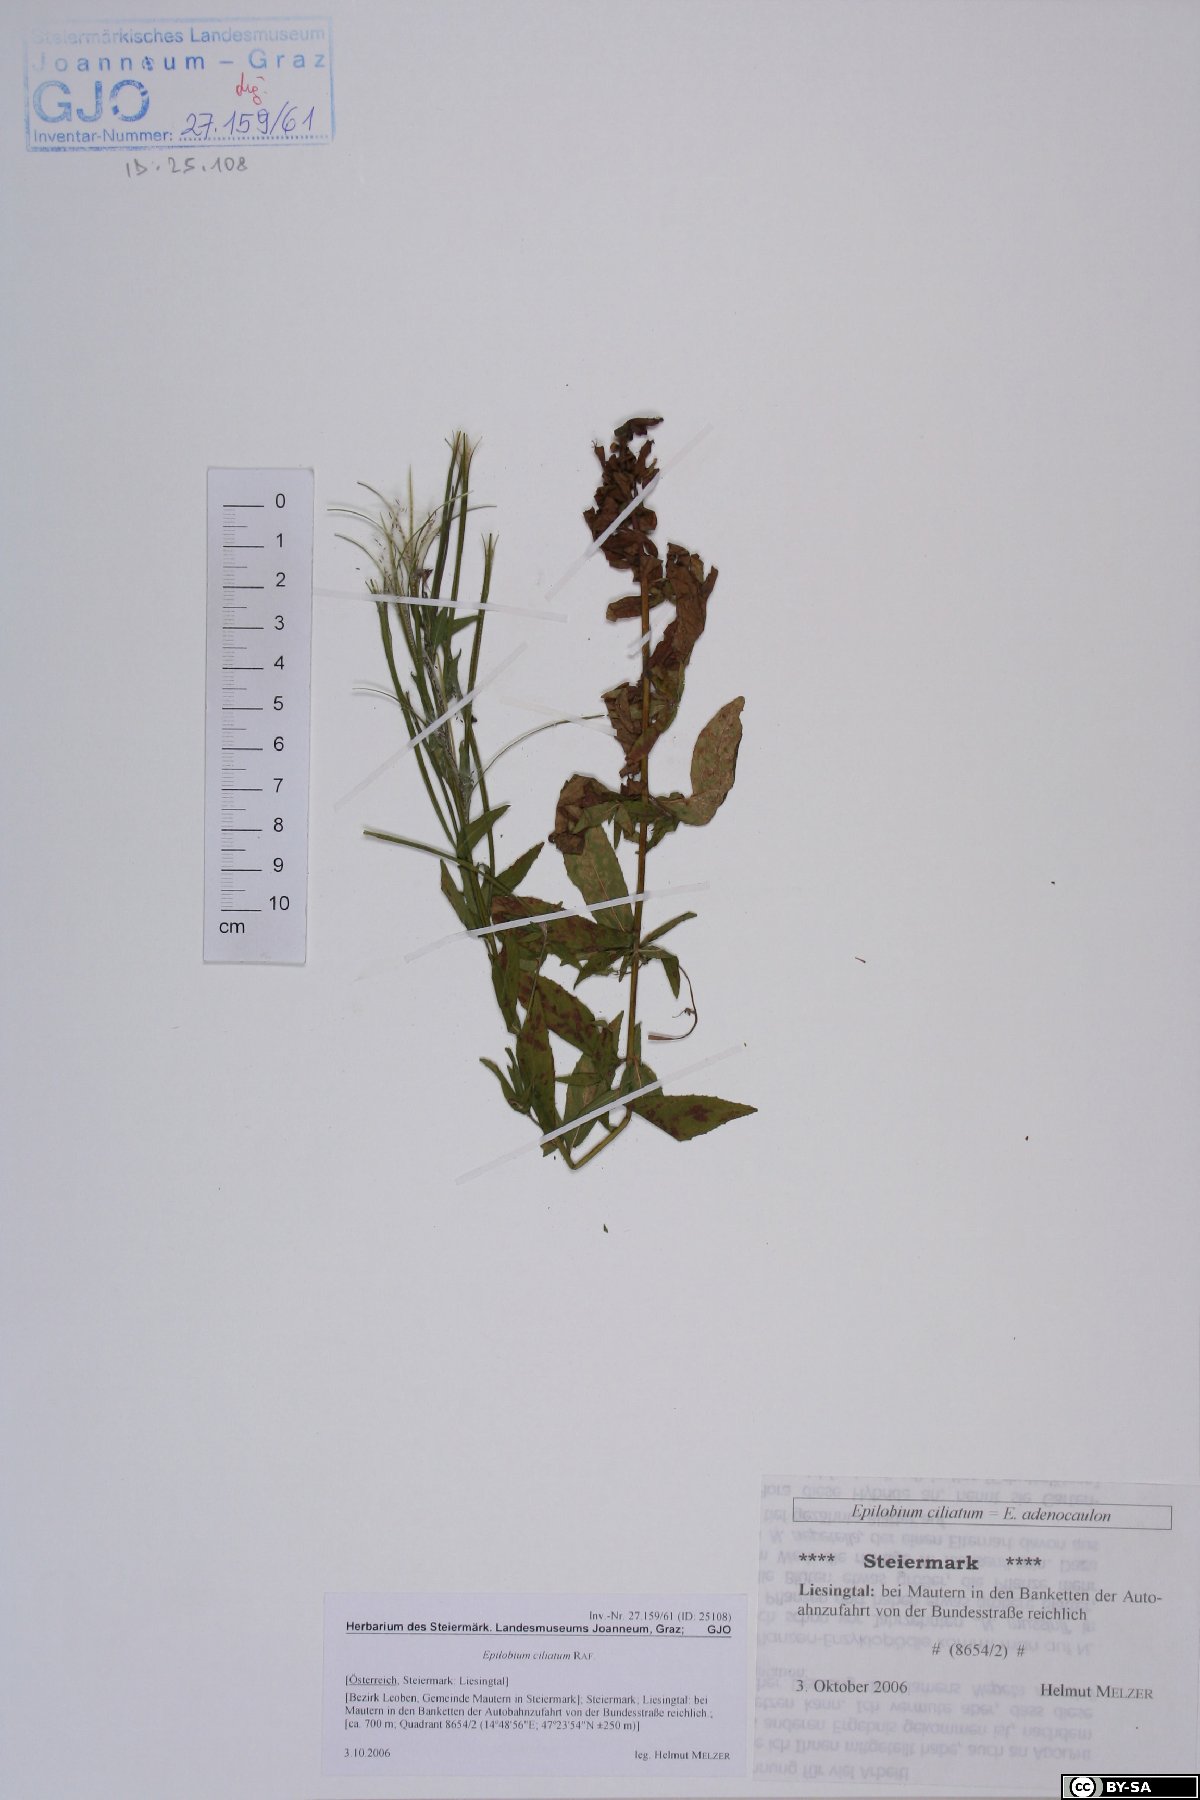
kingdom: Plantae
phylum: Tracheophyta
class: Magnoliopsida
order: Myrtales
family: Onagraceae
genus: Epilobium
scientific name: Epilobium ciliatum
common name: American willowherb
